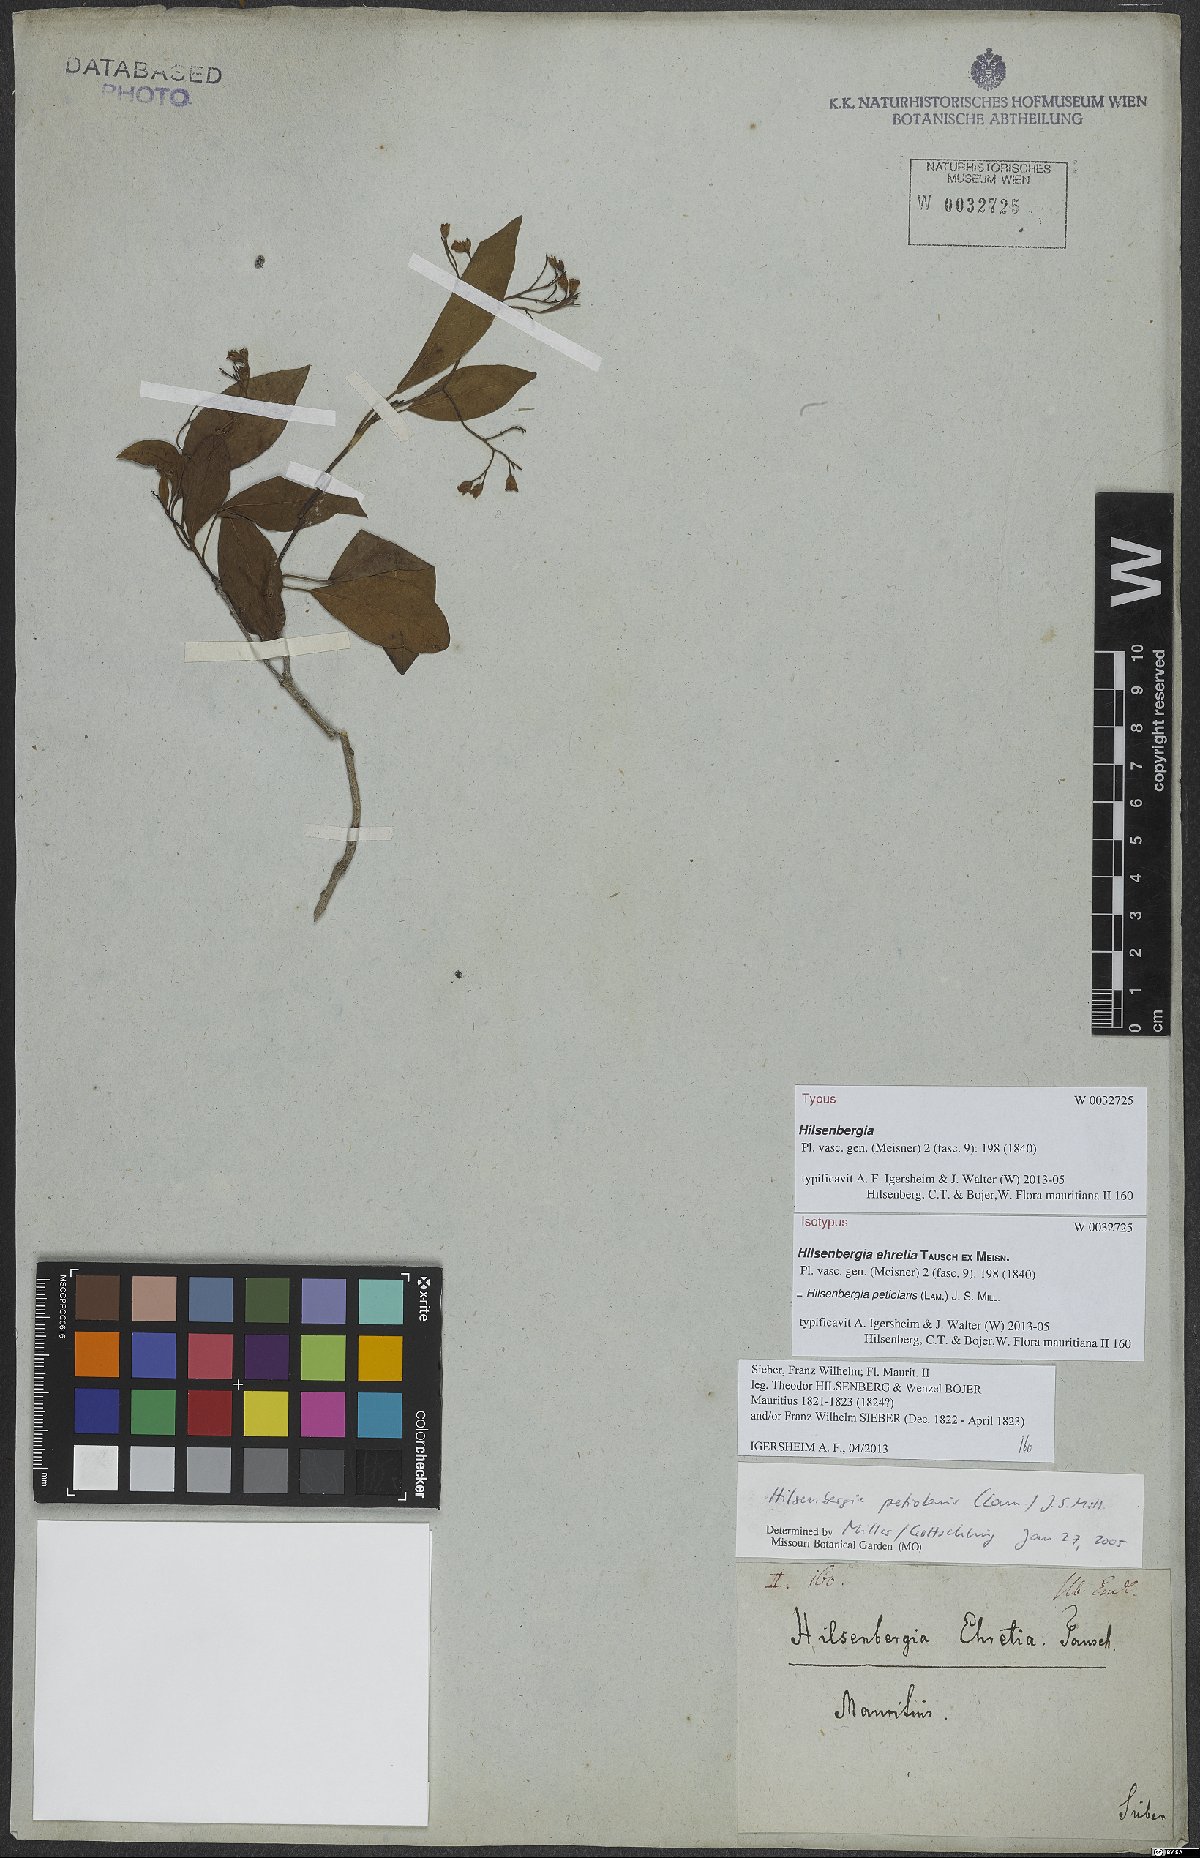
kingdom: Plantae
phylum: Tracheophyta
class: Magnoliopsida
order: Boraginales
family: Ehretiaceae
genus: Bourreria
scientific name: Bourreria petiolaris
